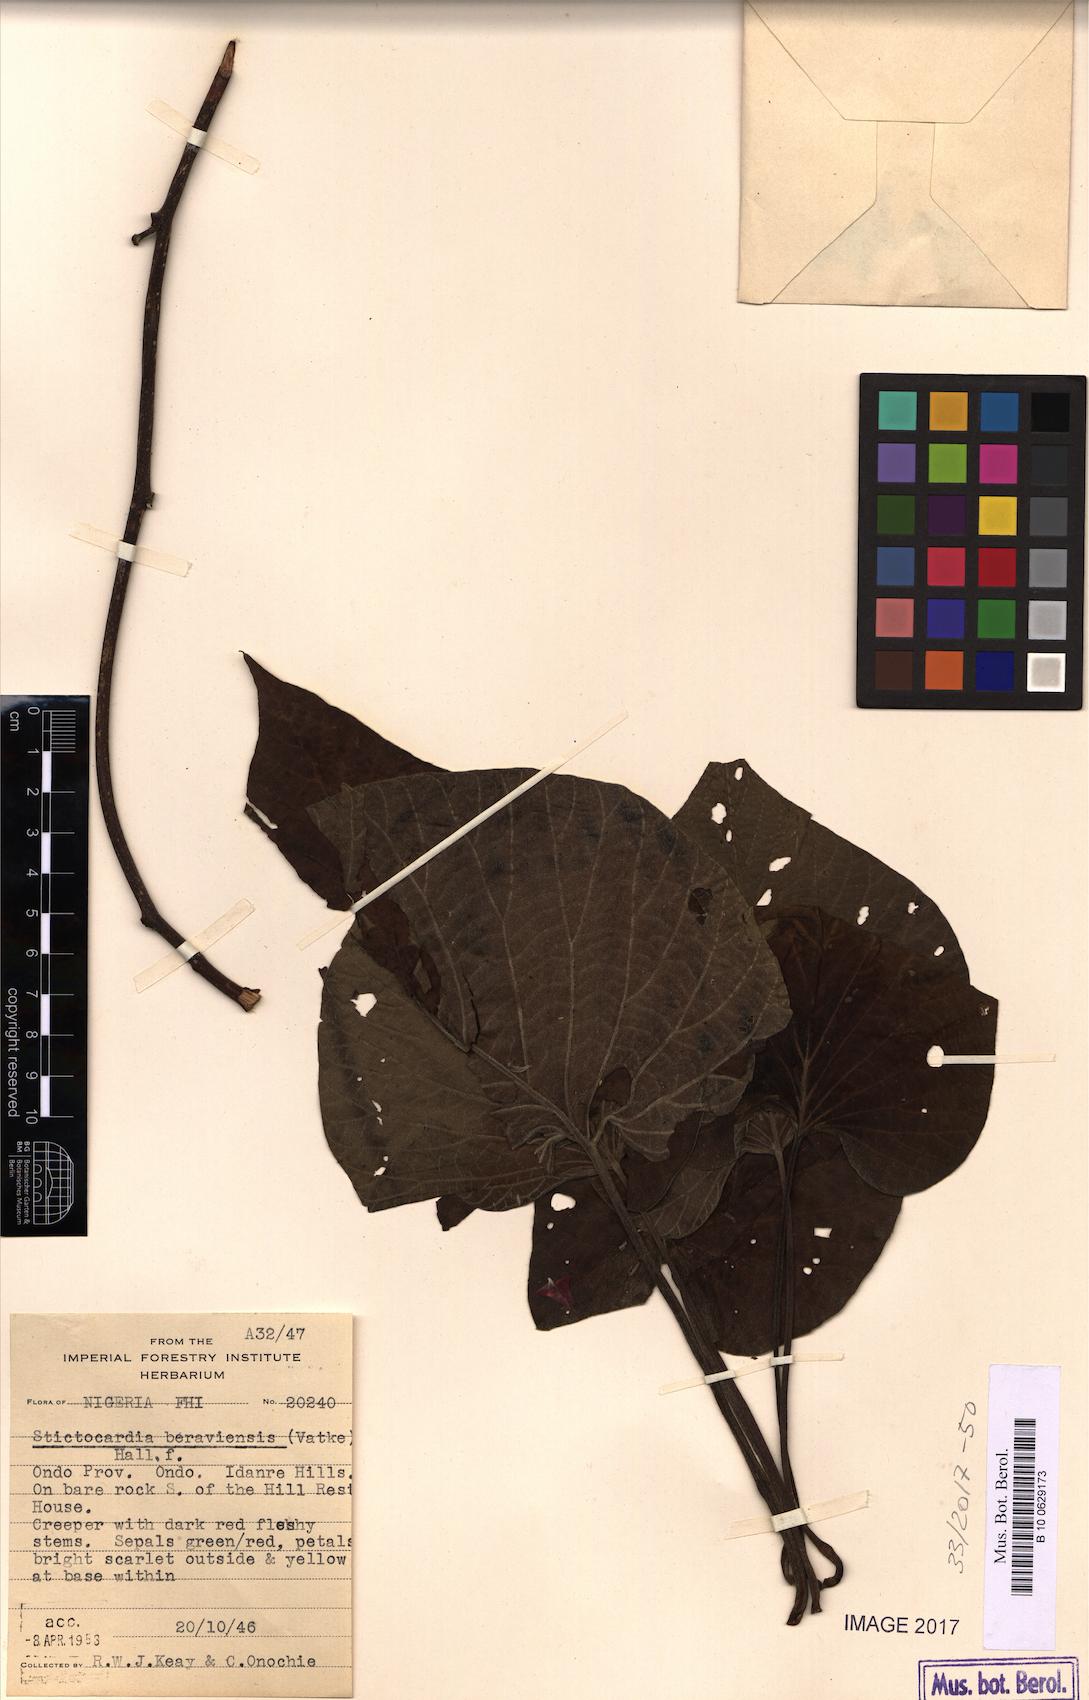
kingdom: Plantae
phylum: Tracheophyta
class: Magnoliopsida
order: Solanales
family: Convolvulaceae
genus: Stictocardia
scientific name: Stictocardia beraviensis
